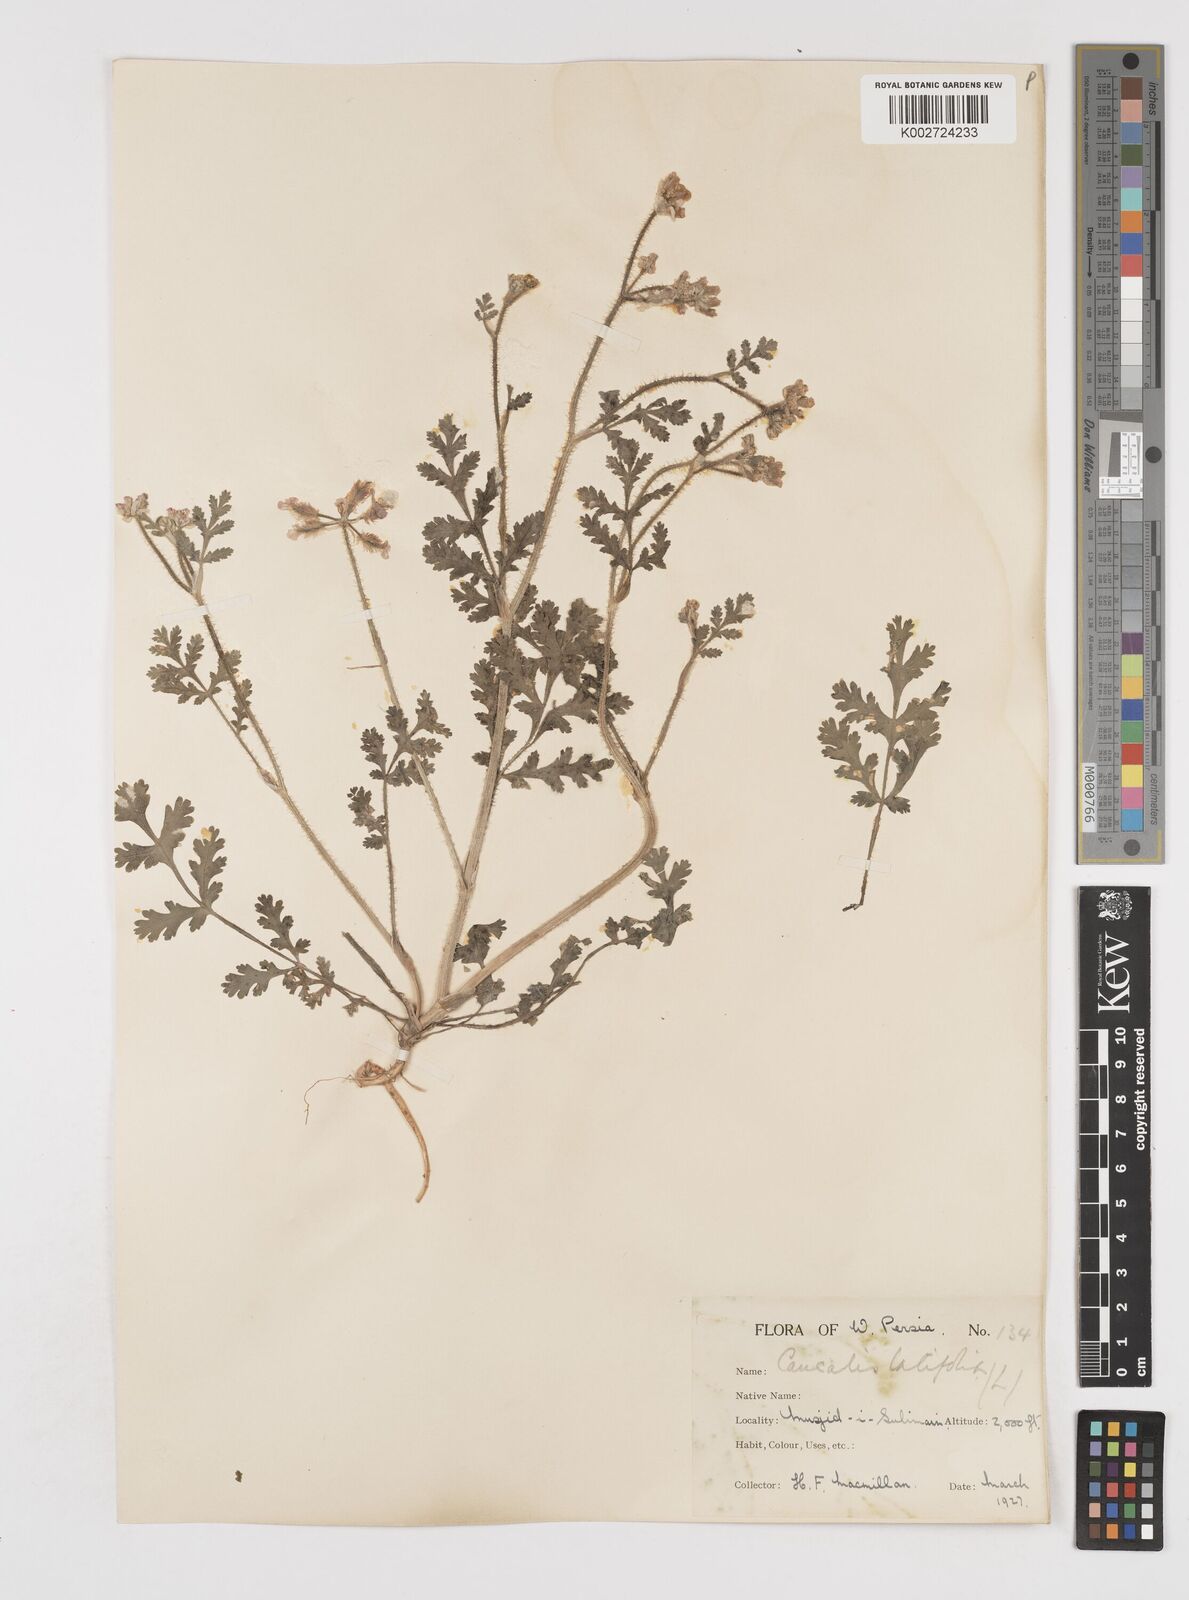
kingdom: Plantae
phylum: Tracheophyta
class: Magnoliopsida
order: Apiales
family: Apiaceae
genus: Turgenia
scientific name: Turgenia latifolia
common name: Greater bur-parsley
